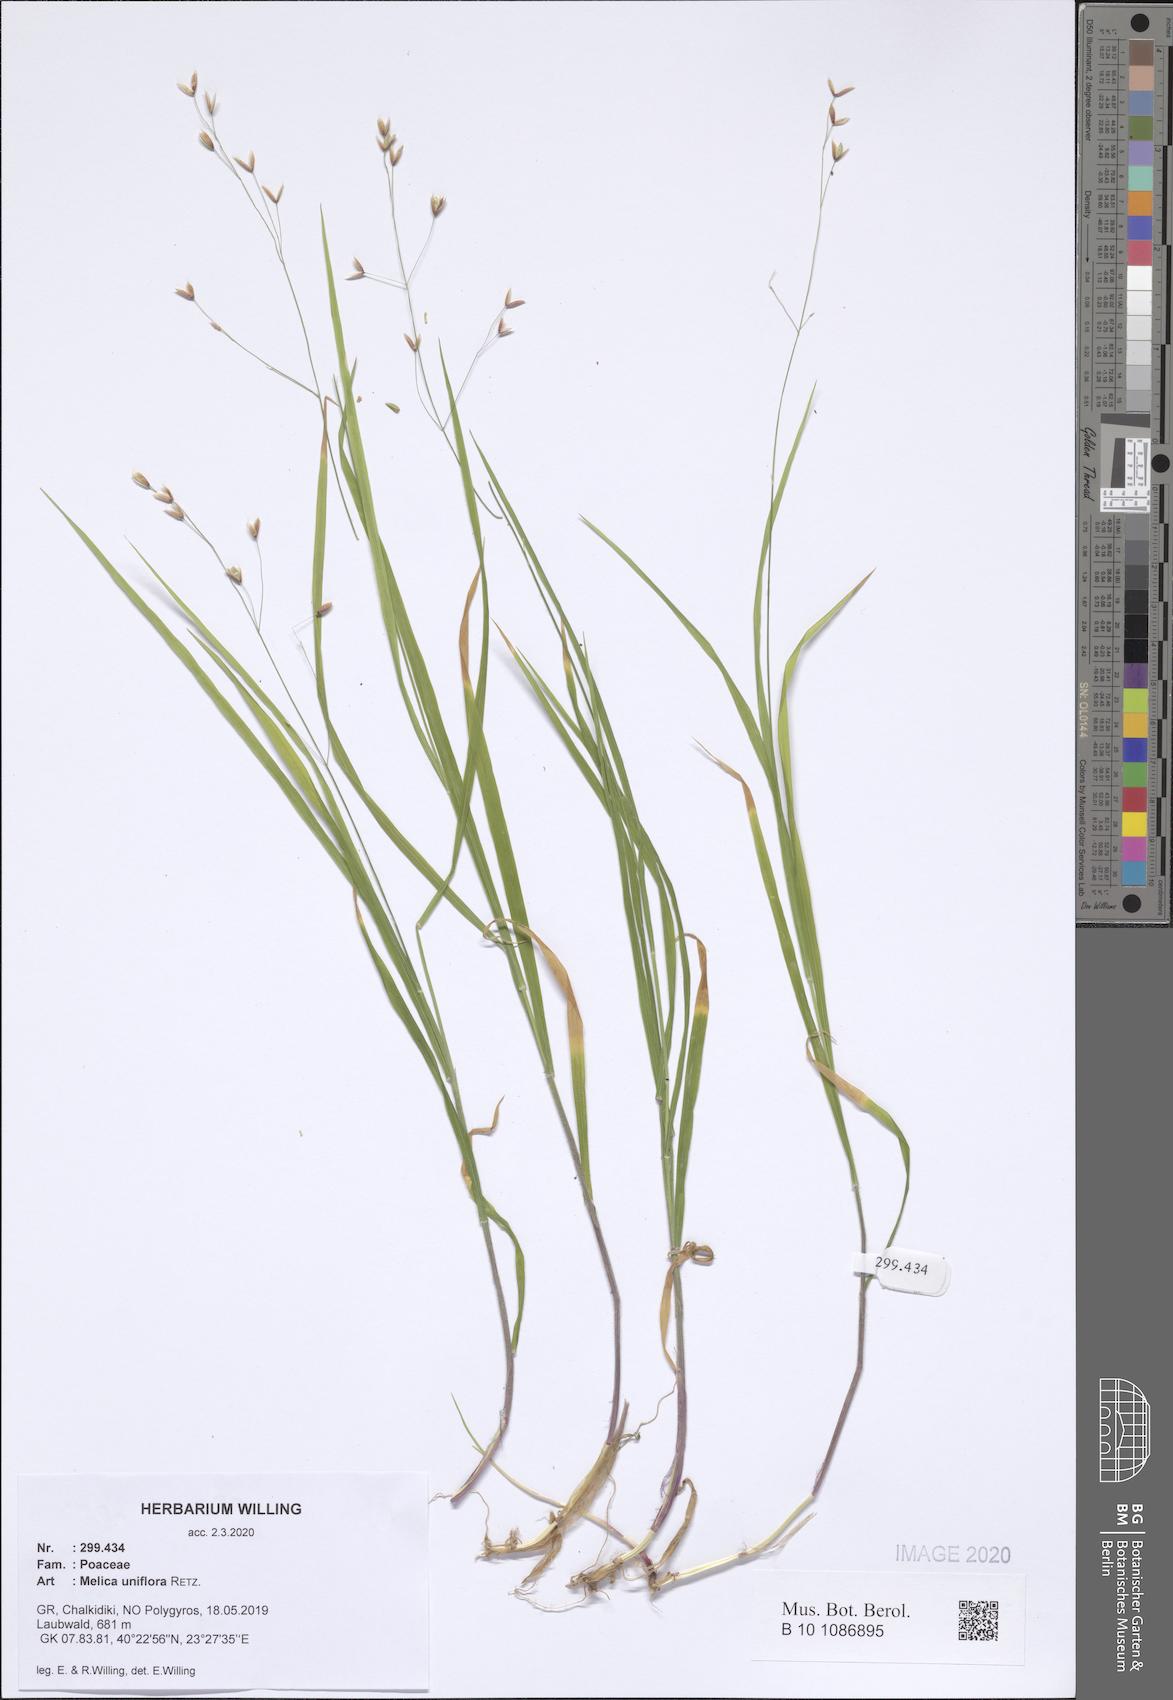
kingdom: Plantae
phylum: Tracheophyta
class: Liliopsida
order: Poales
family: Poaceae
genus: Melica
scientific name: Melica uniflora
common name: Wood melick
